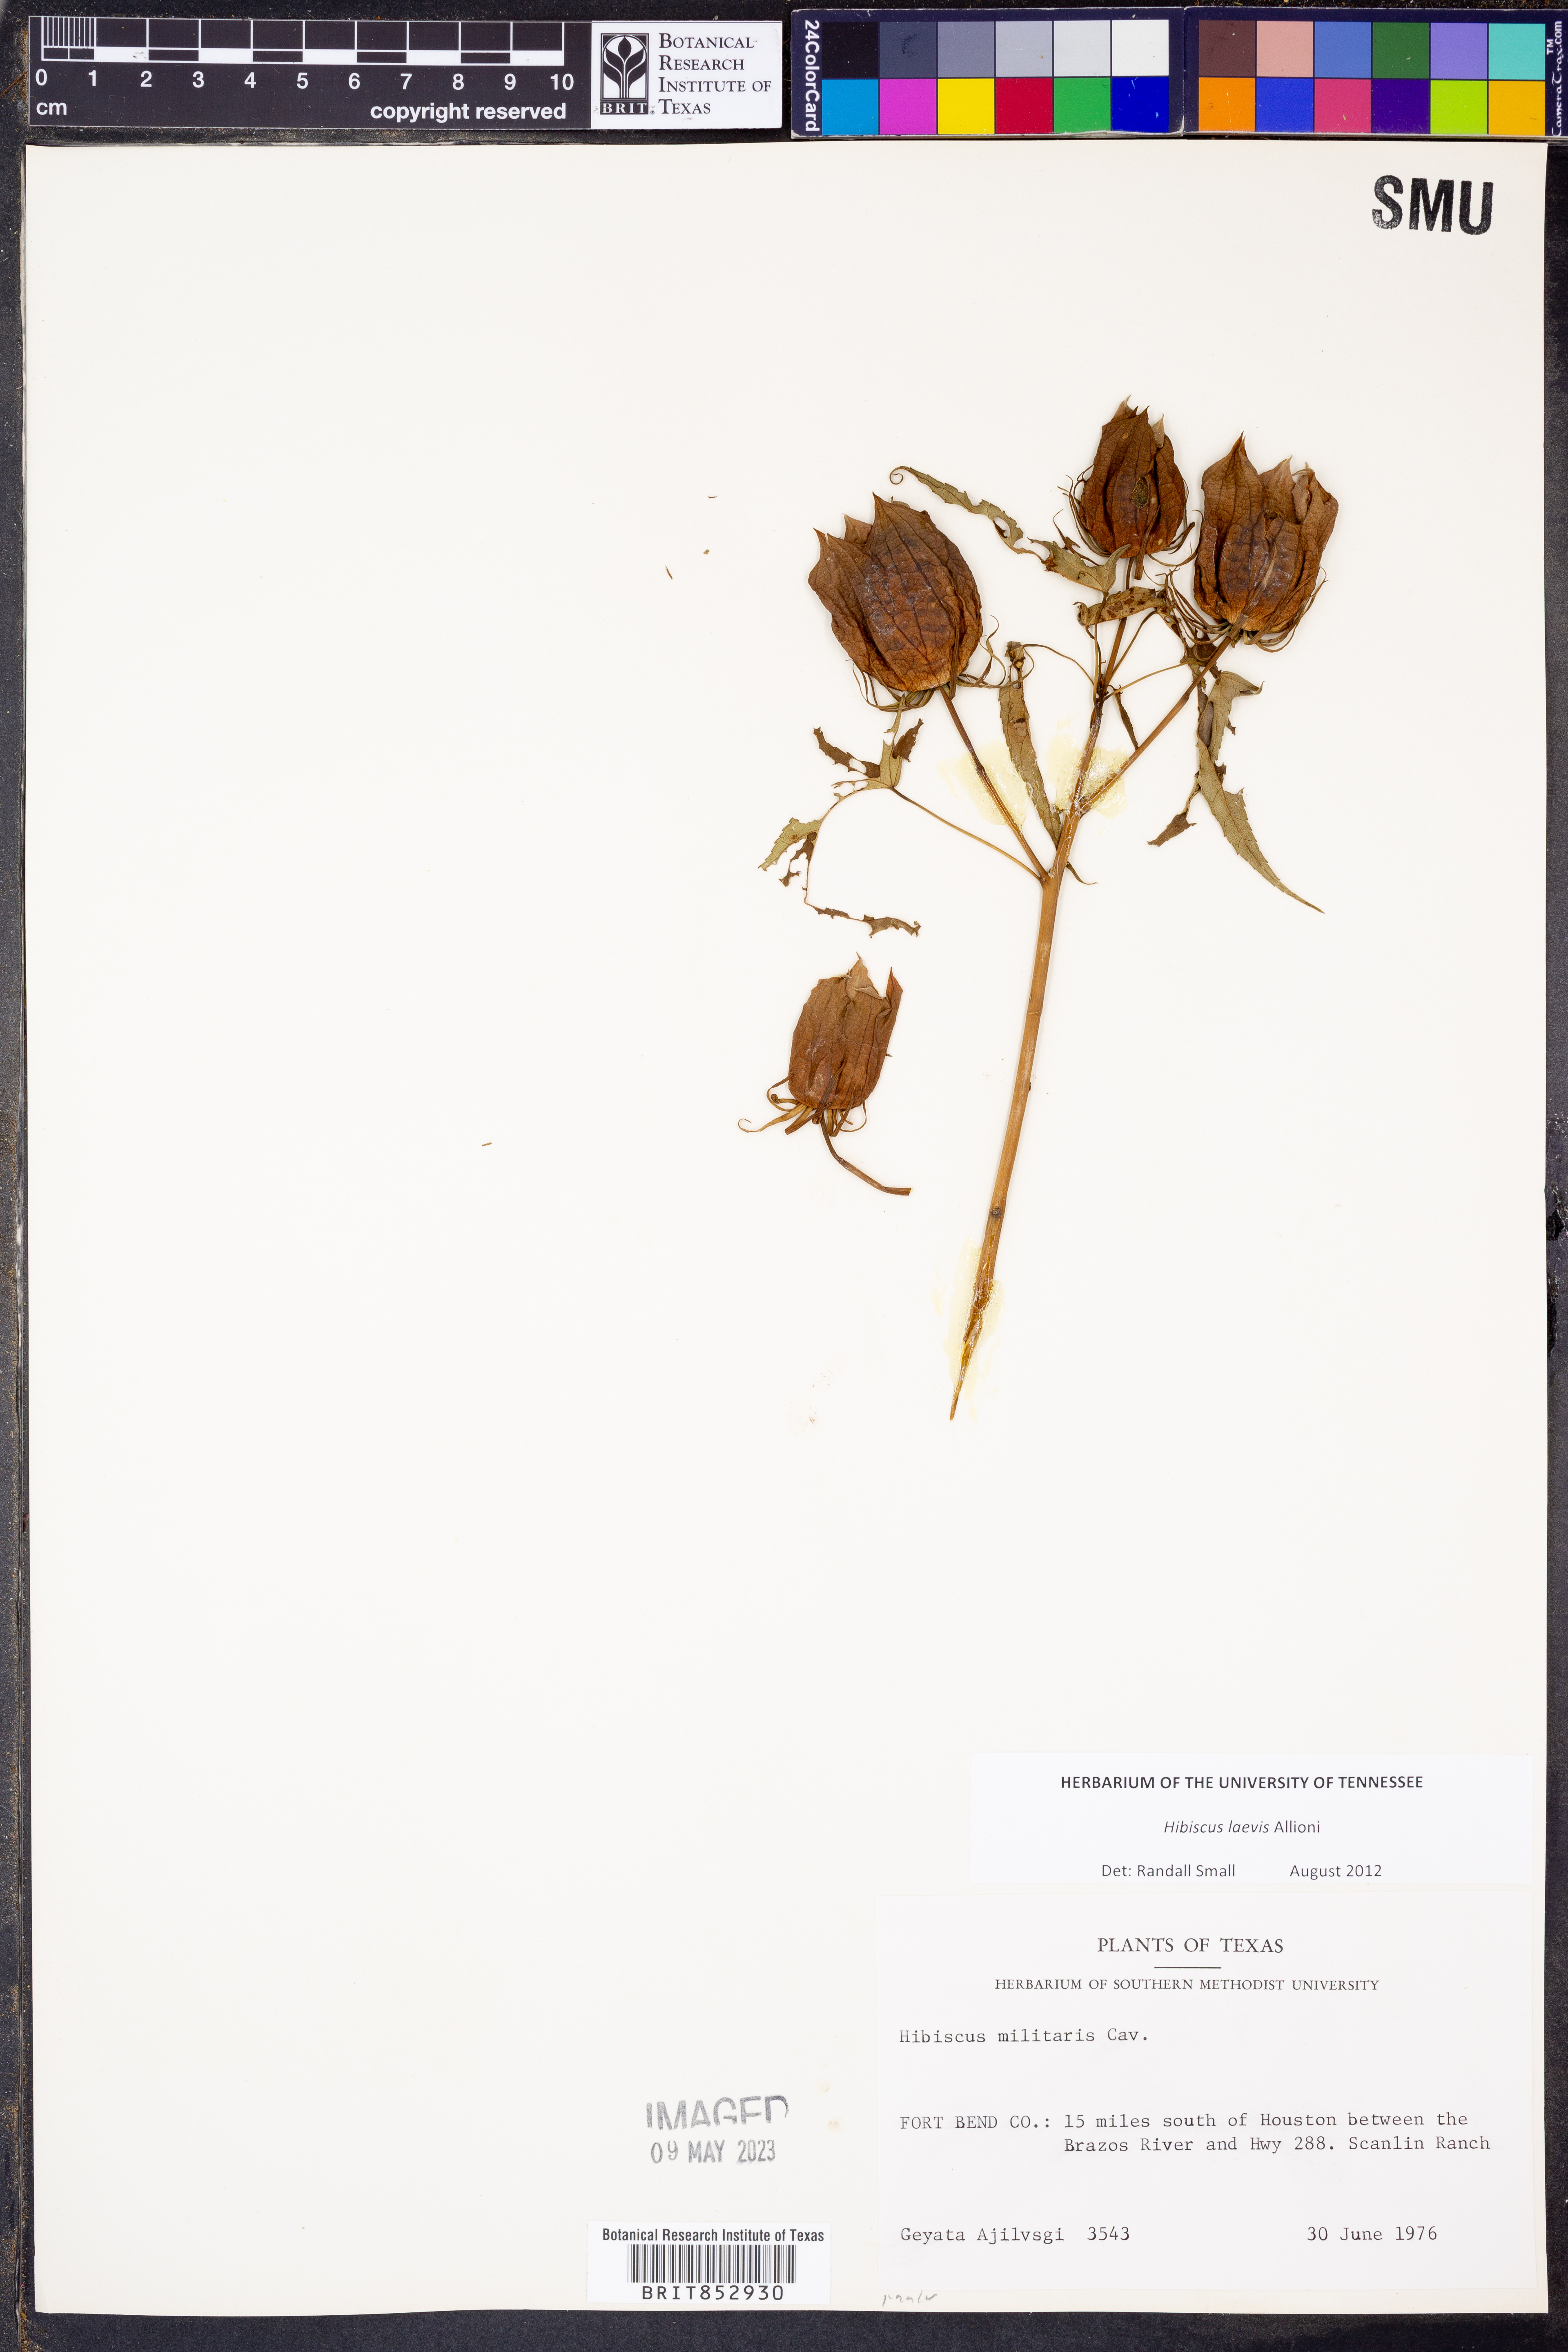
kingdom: Plantae
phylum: Tracheophyta
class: Magnoliopsida
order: Malvales
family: Malvaceae
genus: Hibiscus
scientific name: Hibiscus laevis
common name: Scarlet rose-mallow
